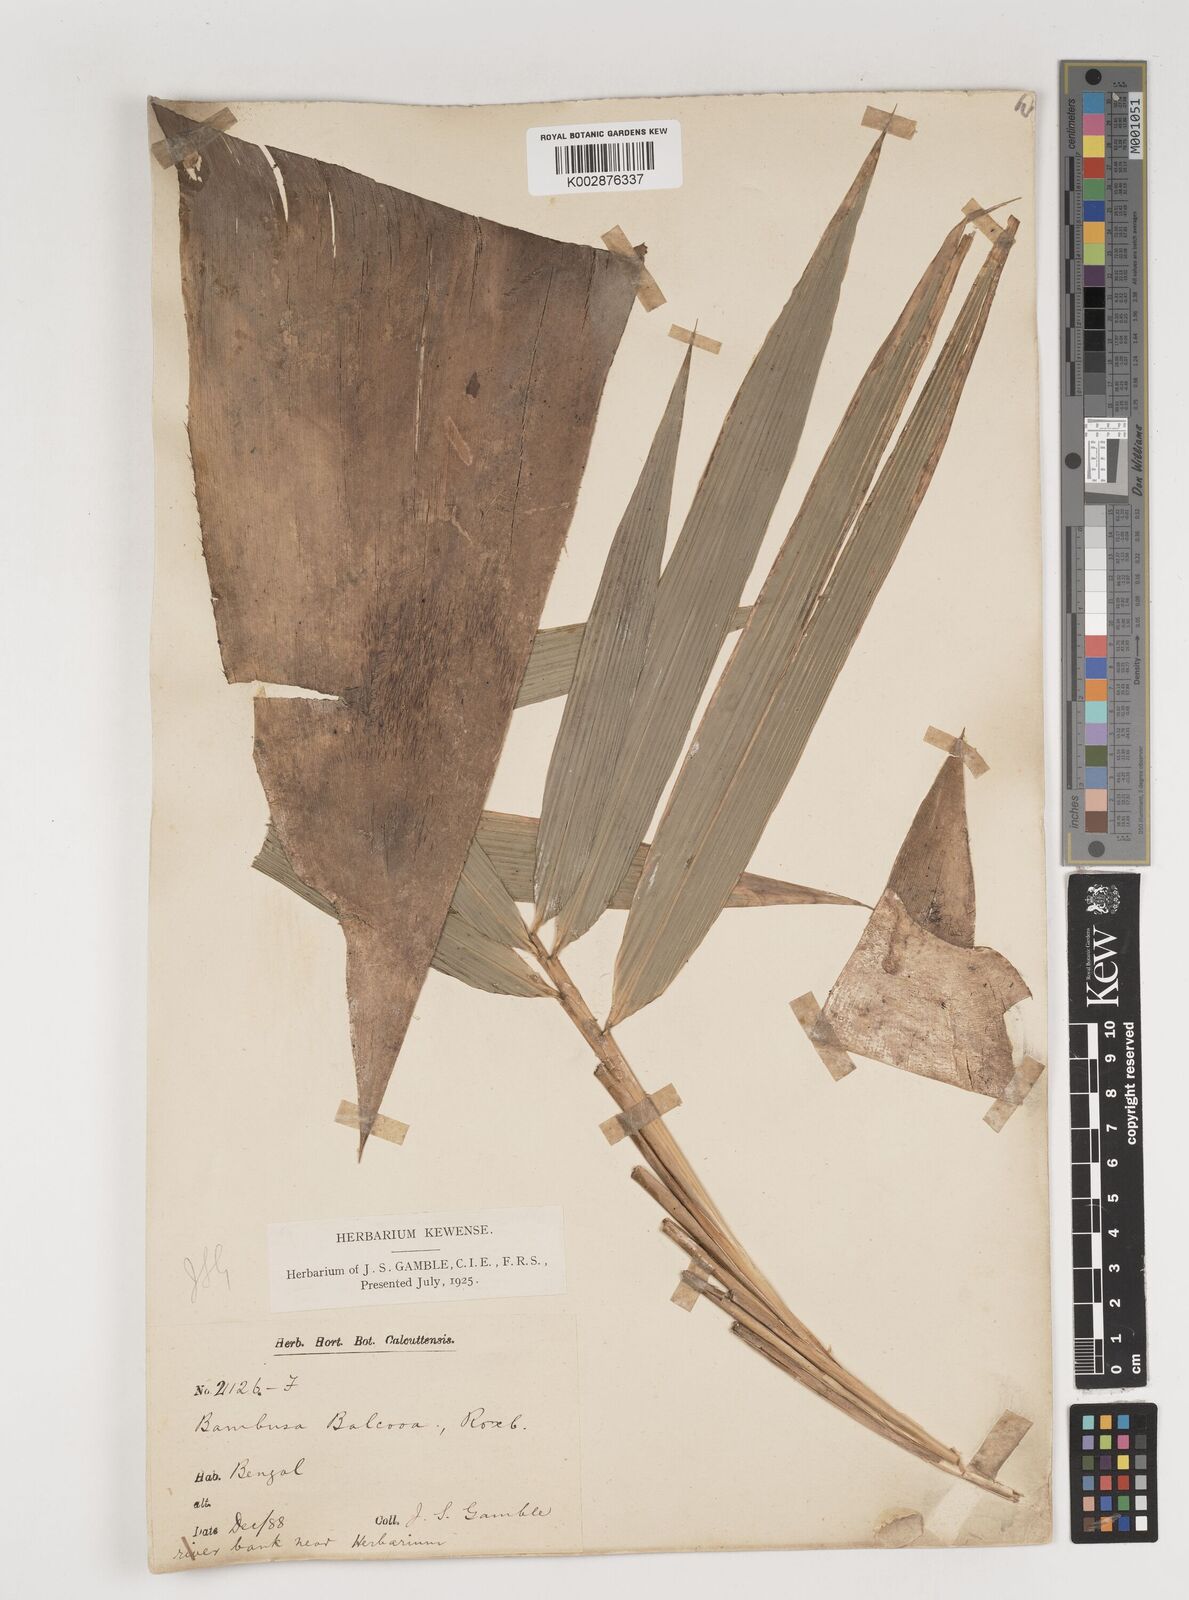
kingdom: Plantae
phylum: Tracheophyta
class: Liliopsida
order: Poales
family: Poaceae
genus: Bambusa
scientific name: Bambusa balcooa
